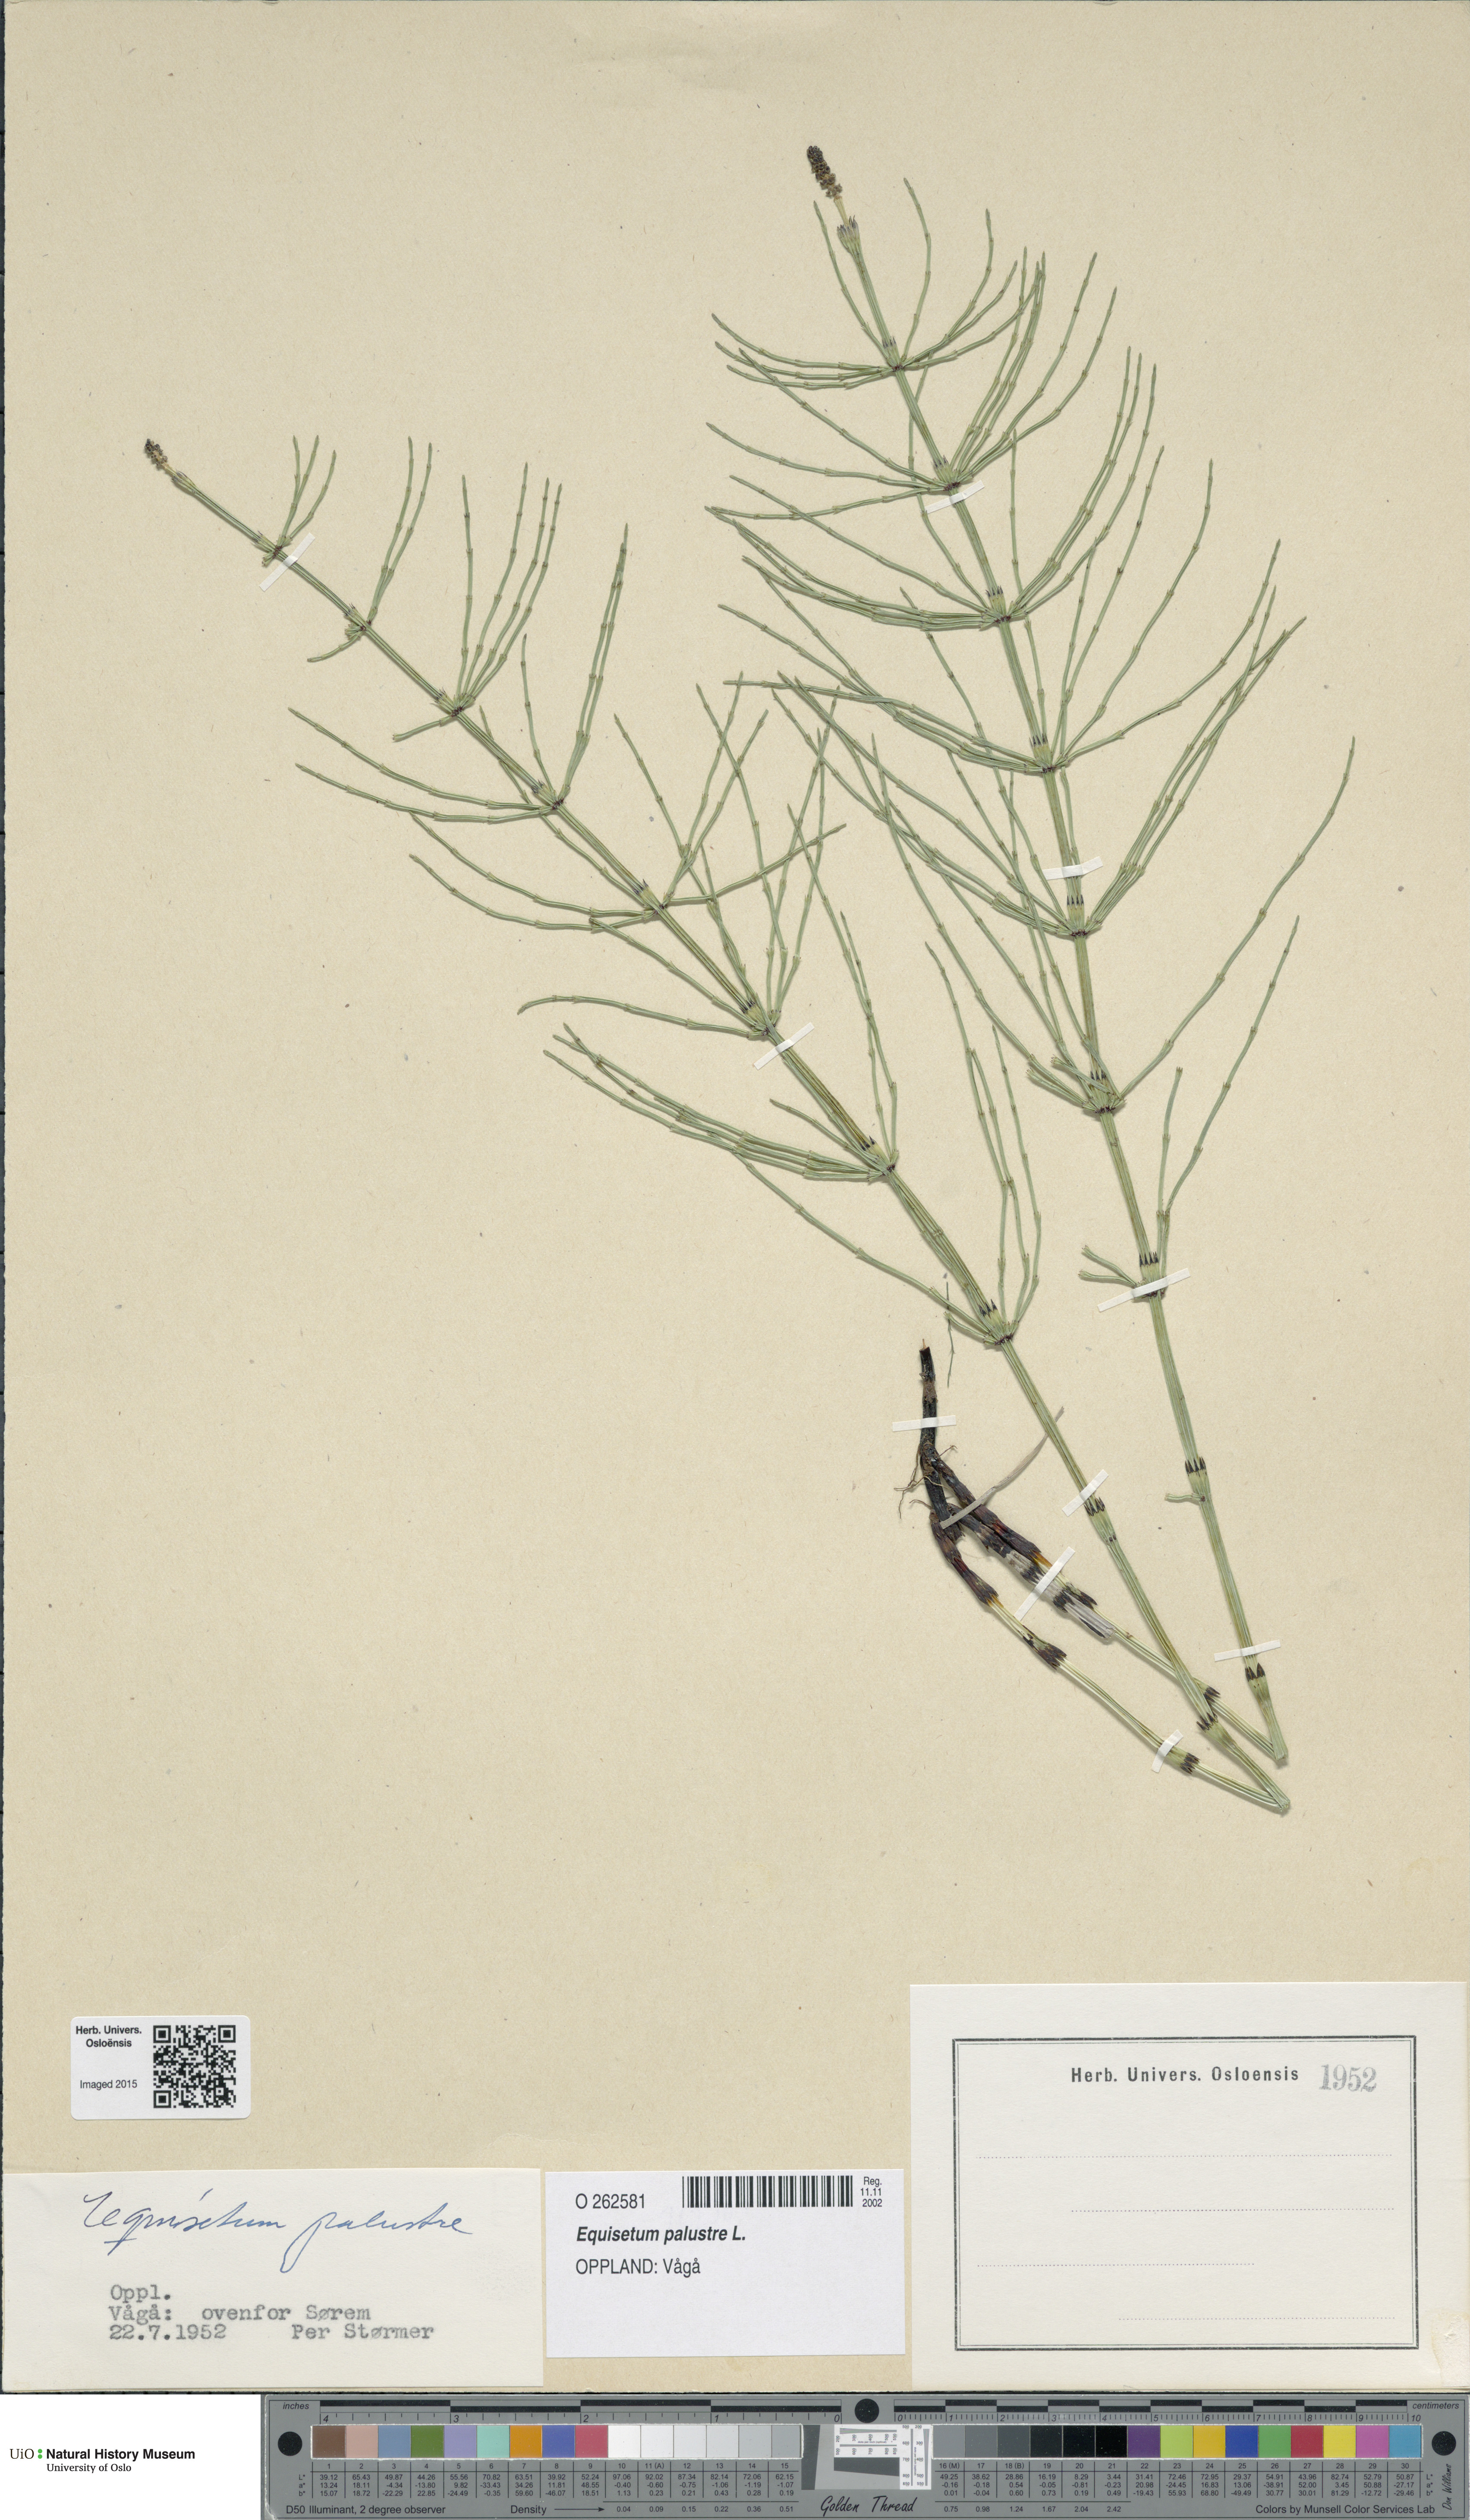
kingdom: Plantae
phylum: Tracheophyta
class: Polypodiopsida
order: Equisetales
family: Equisetaceae
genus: Equisetum
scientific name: Equisetum palustre
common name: Marsh horsetail
